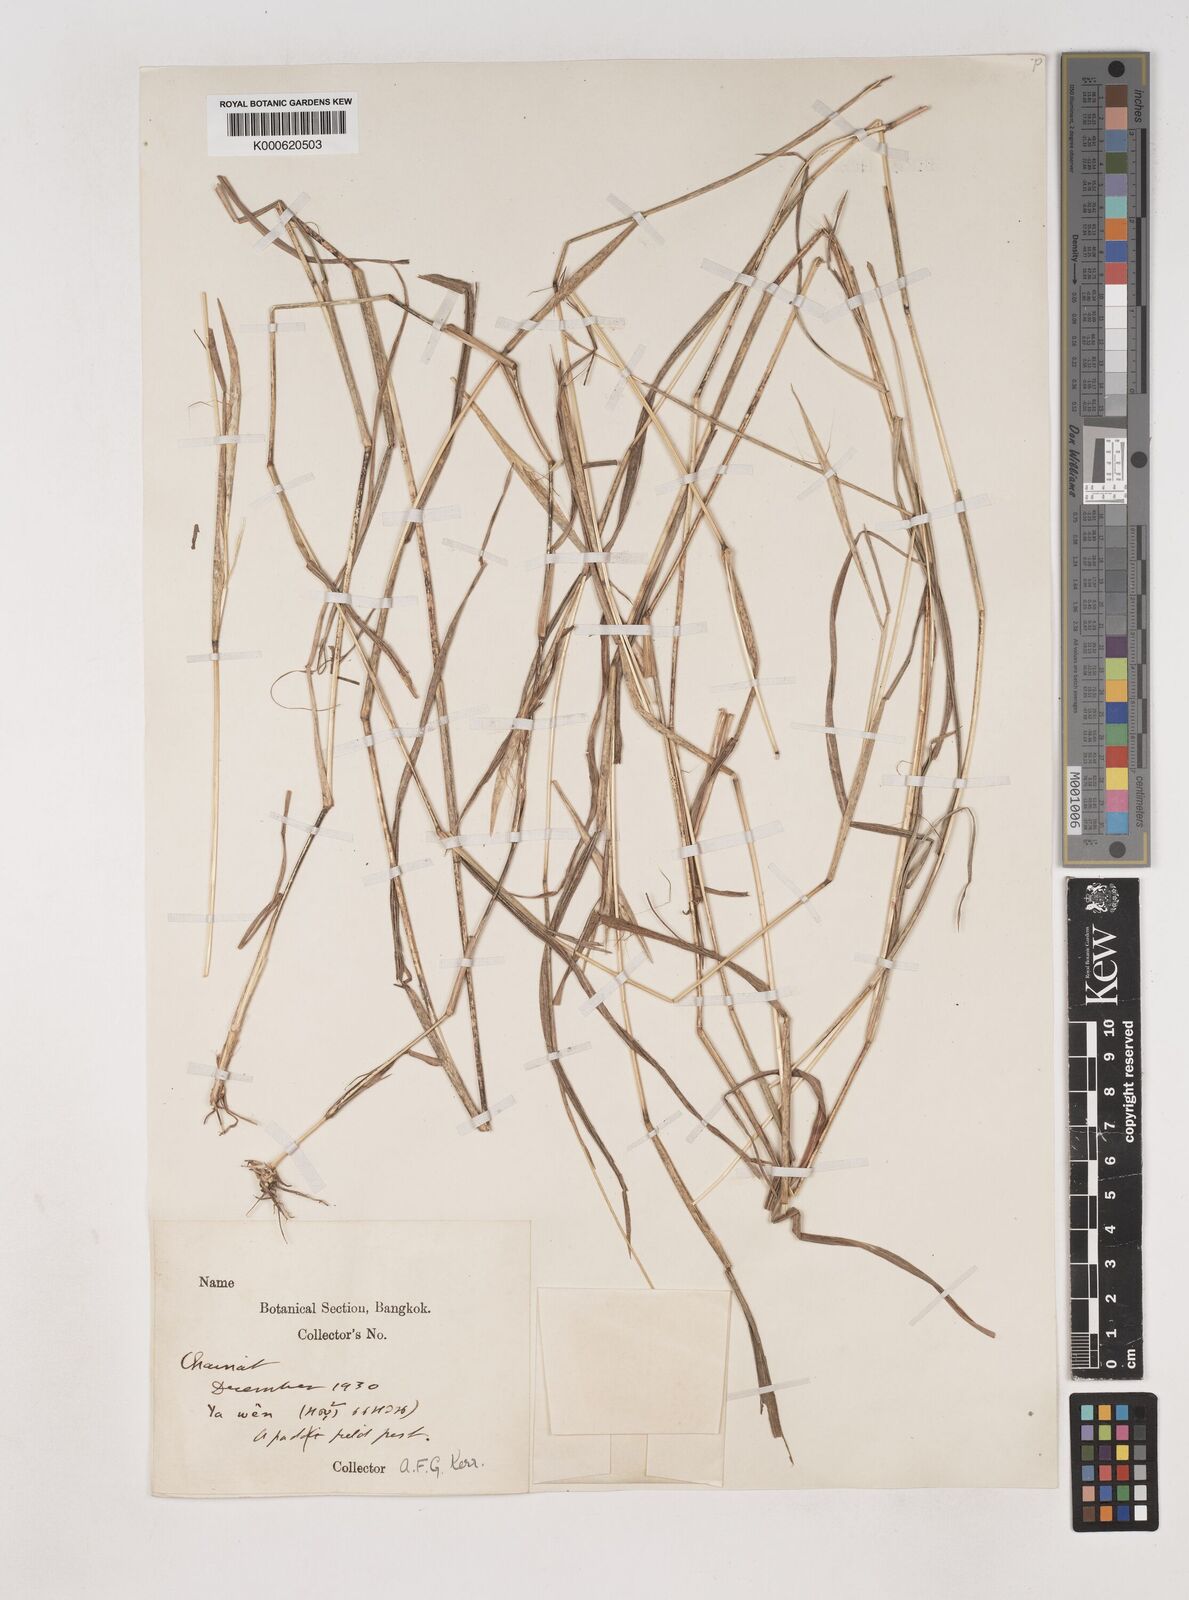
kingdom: Plantae
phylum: Tracheophyta
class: Liliopsida
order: Poales
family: Poaceae
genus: Dichanthium
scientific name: Dichanthium caricosum
